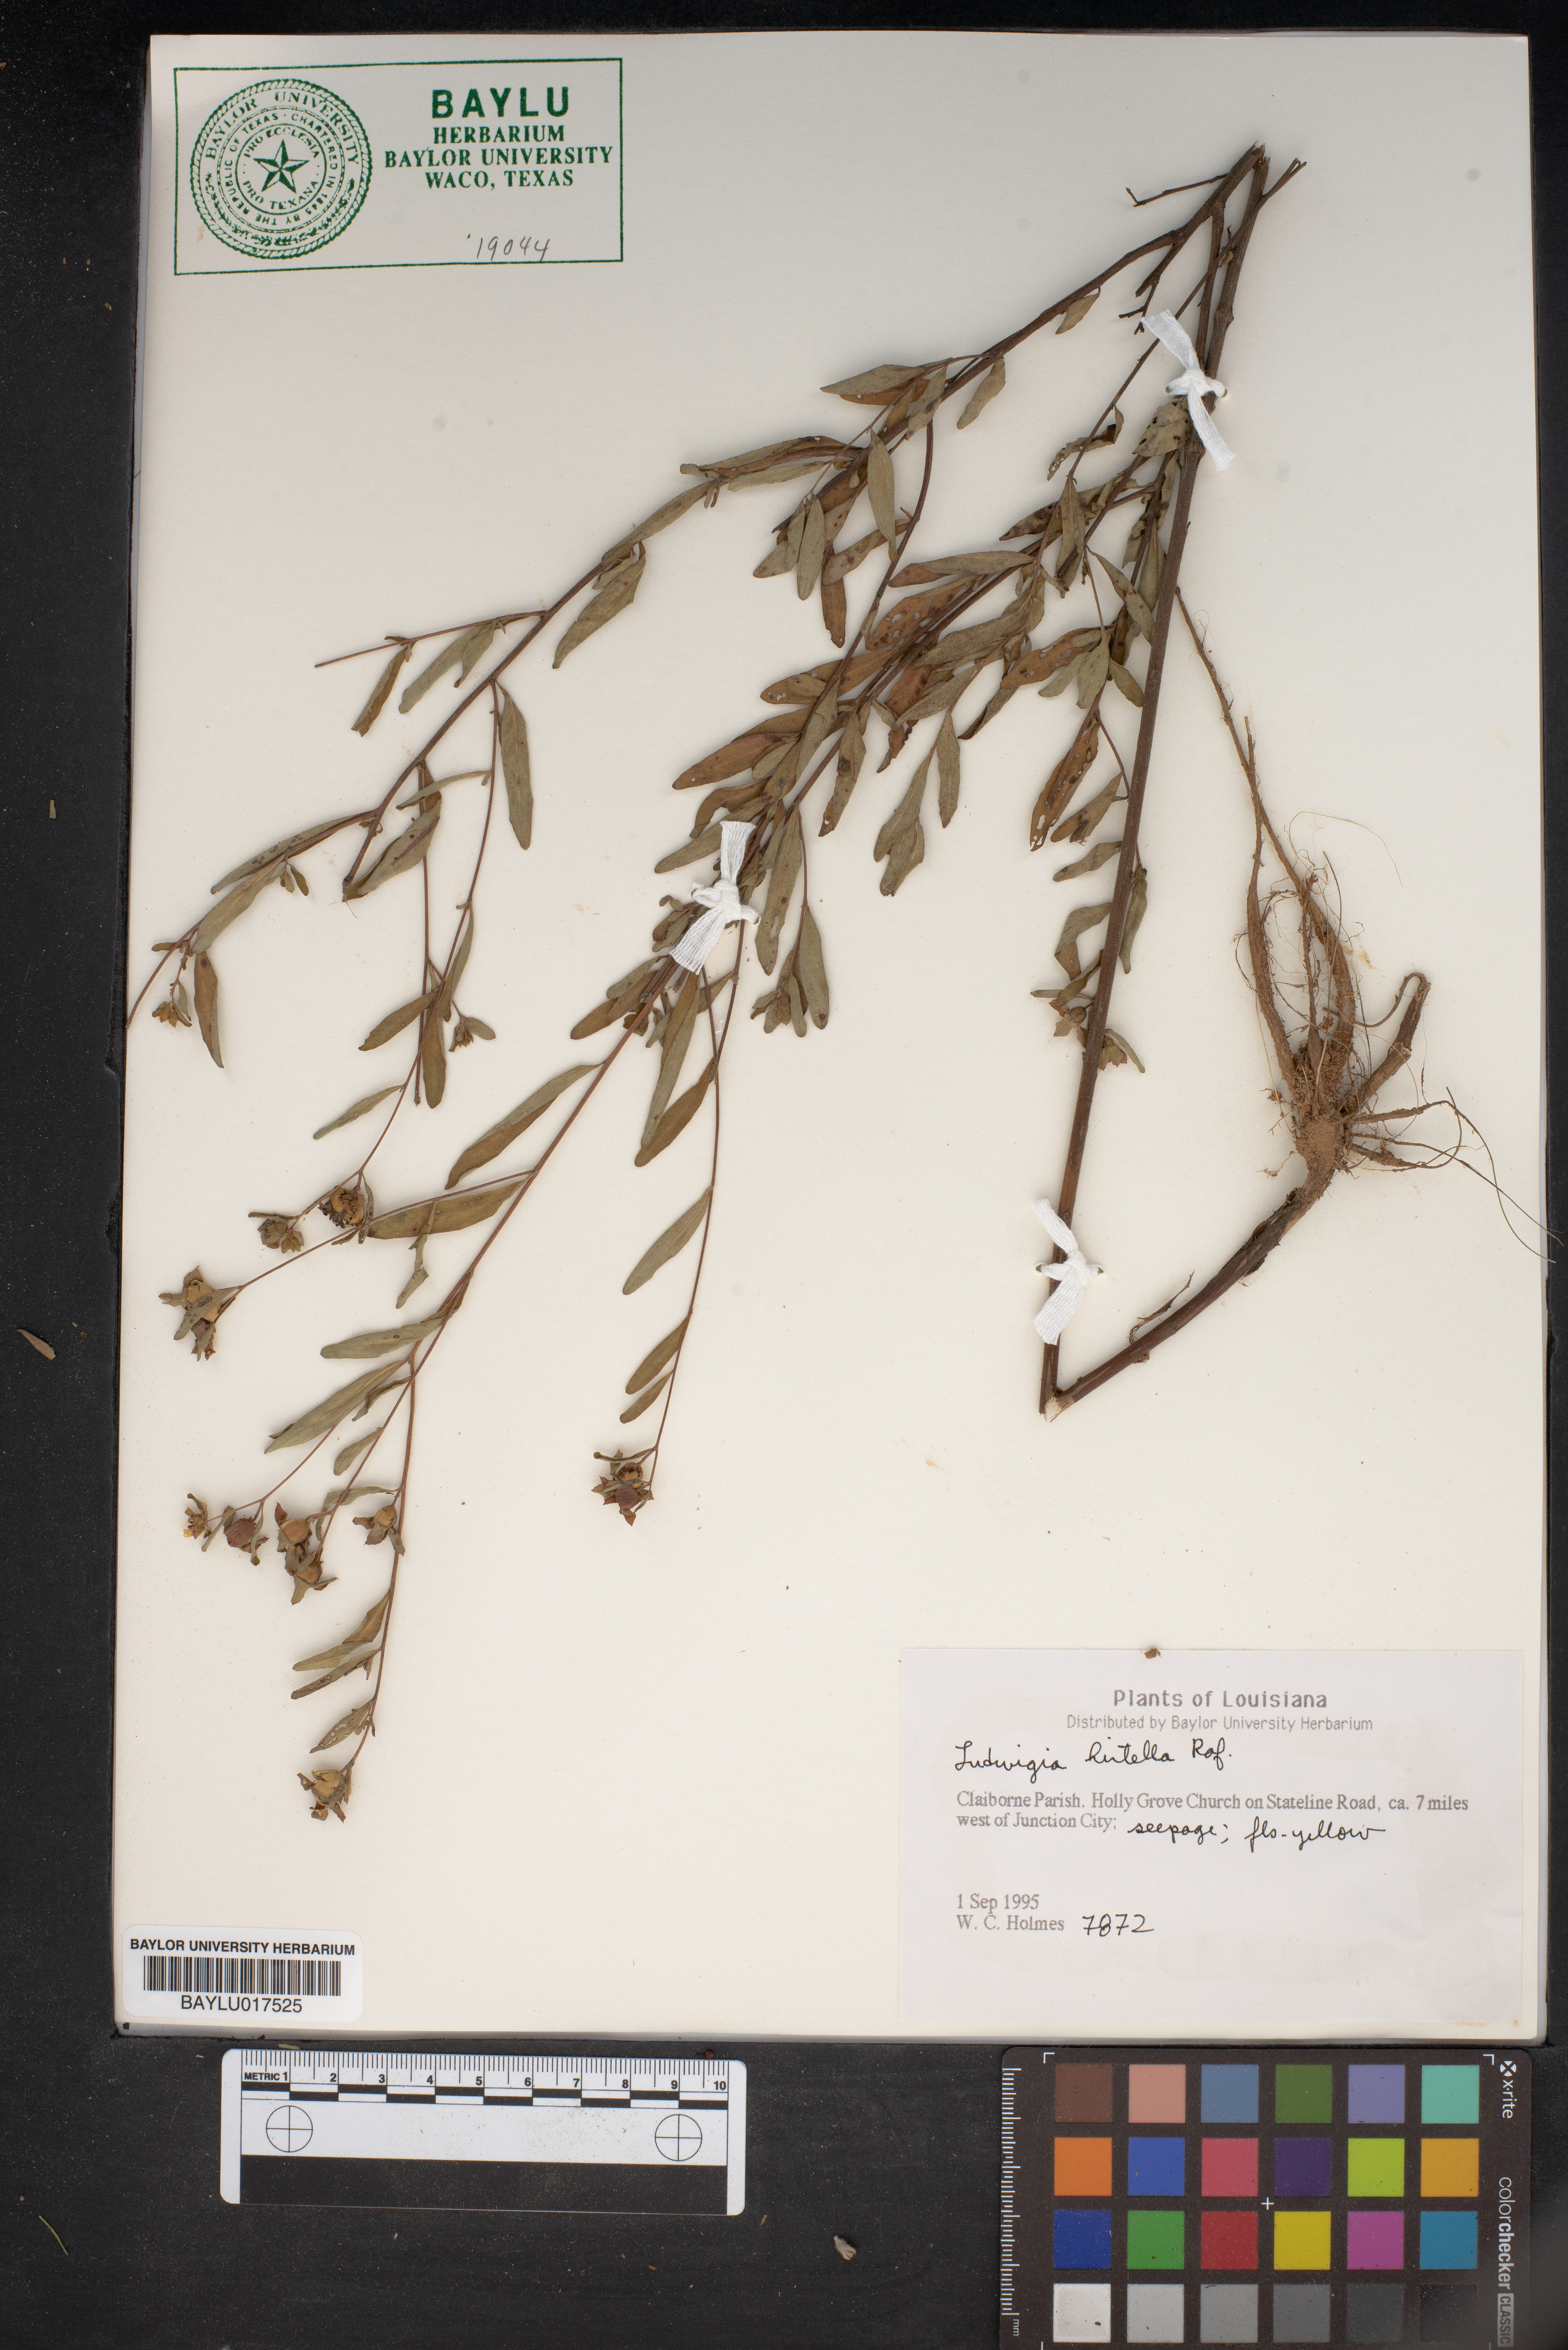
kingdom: Plantae
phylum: Tracheophyta
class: Magnoliopsida
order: Myrtales
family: Onagraceae
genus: Ludwigia
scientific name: Ludwigia hirtella
